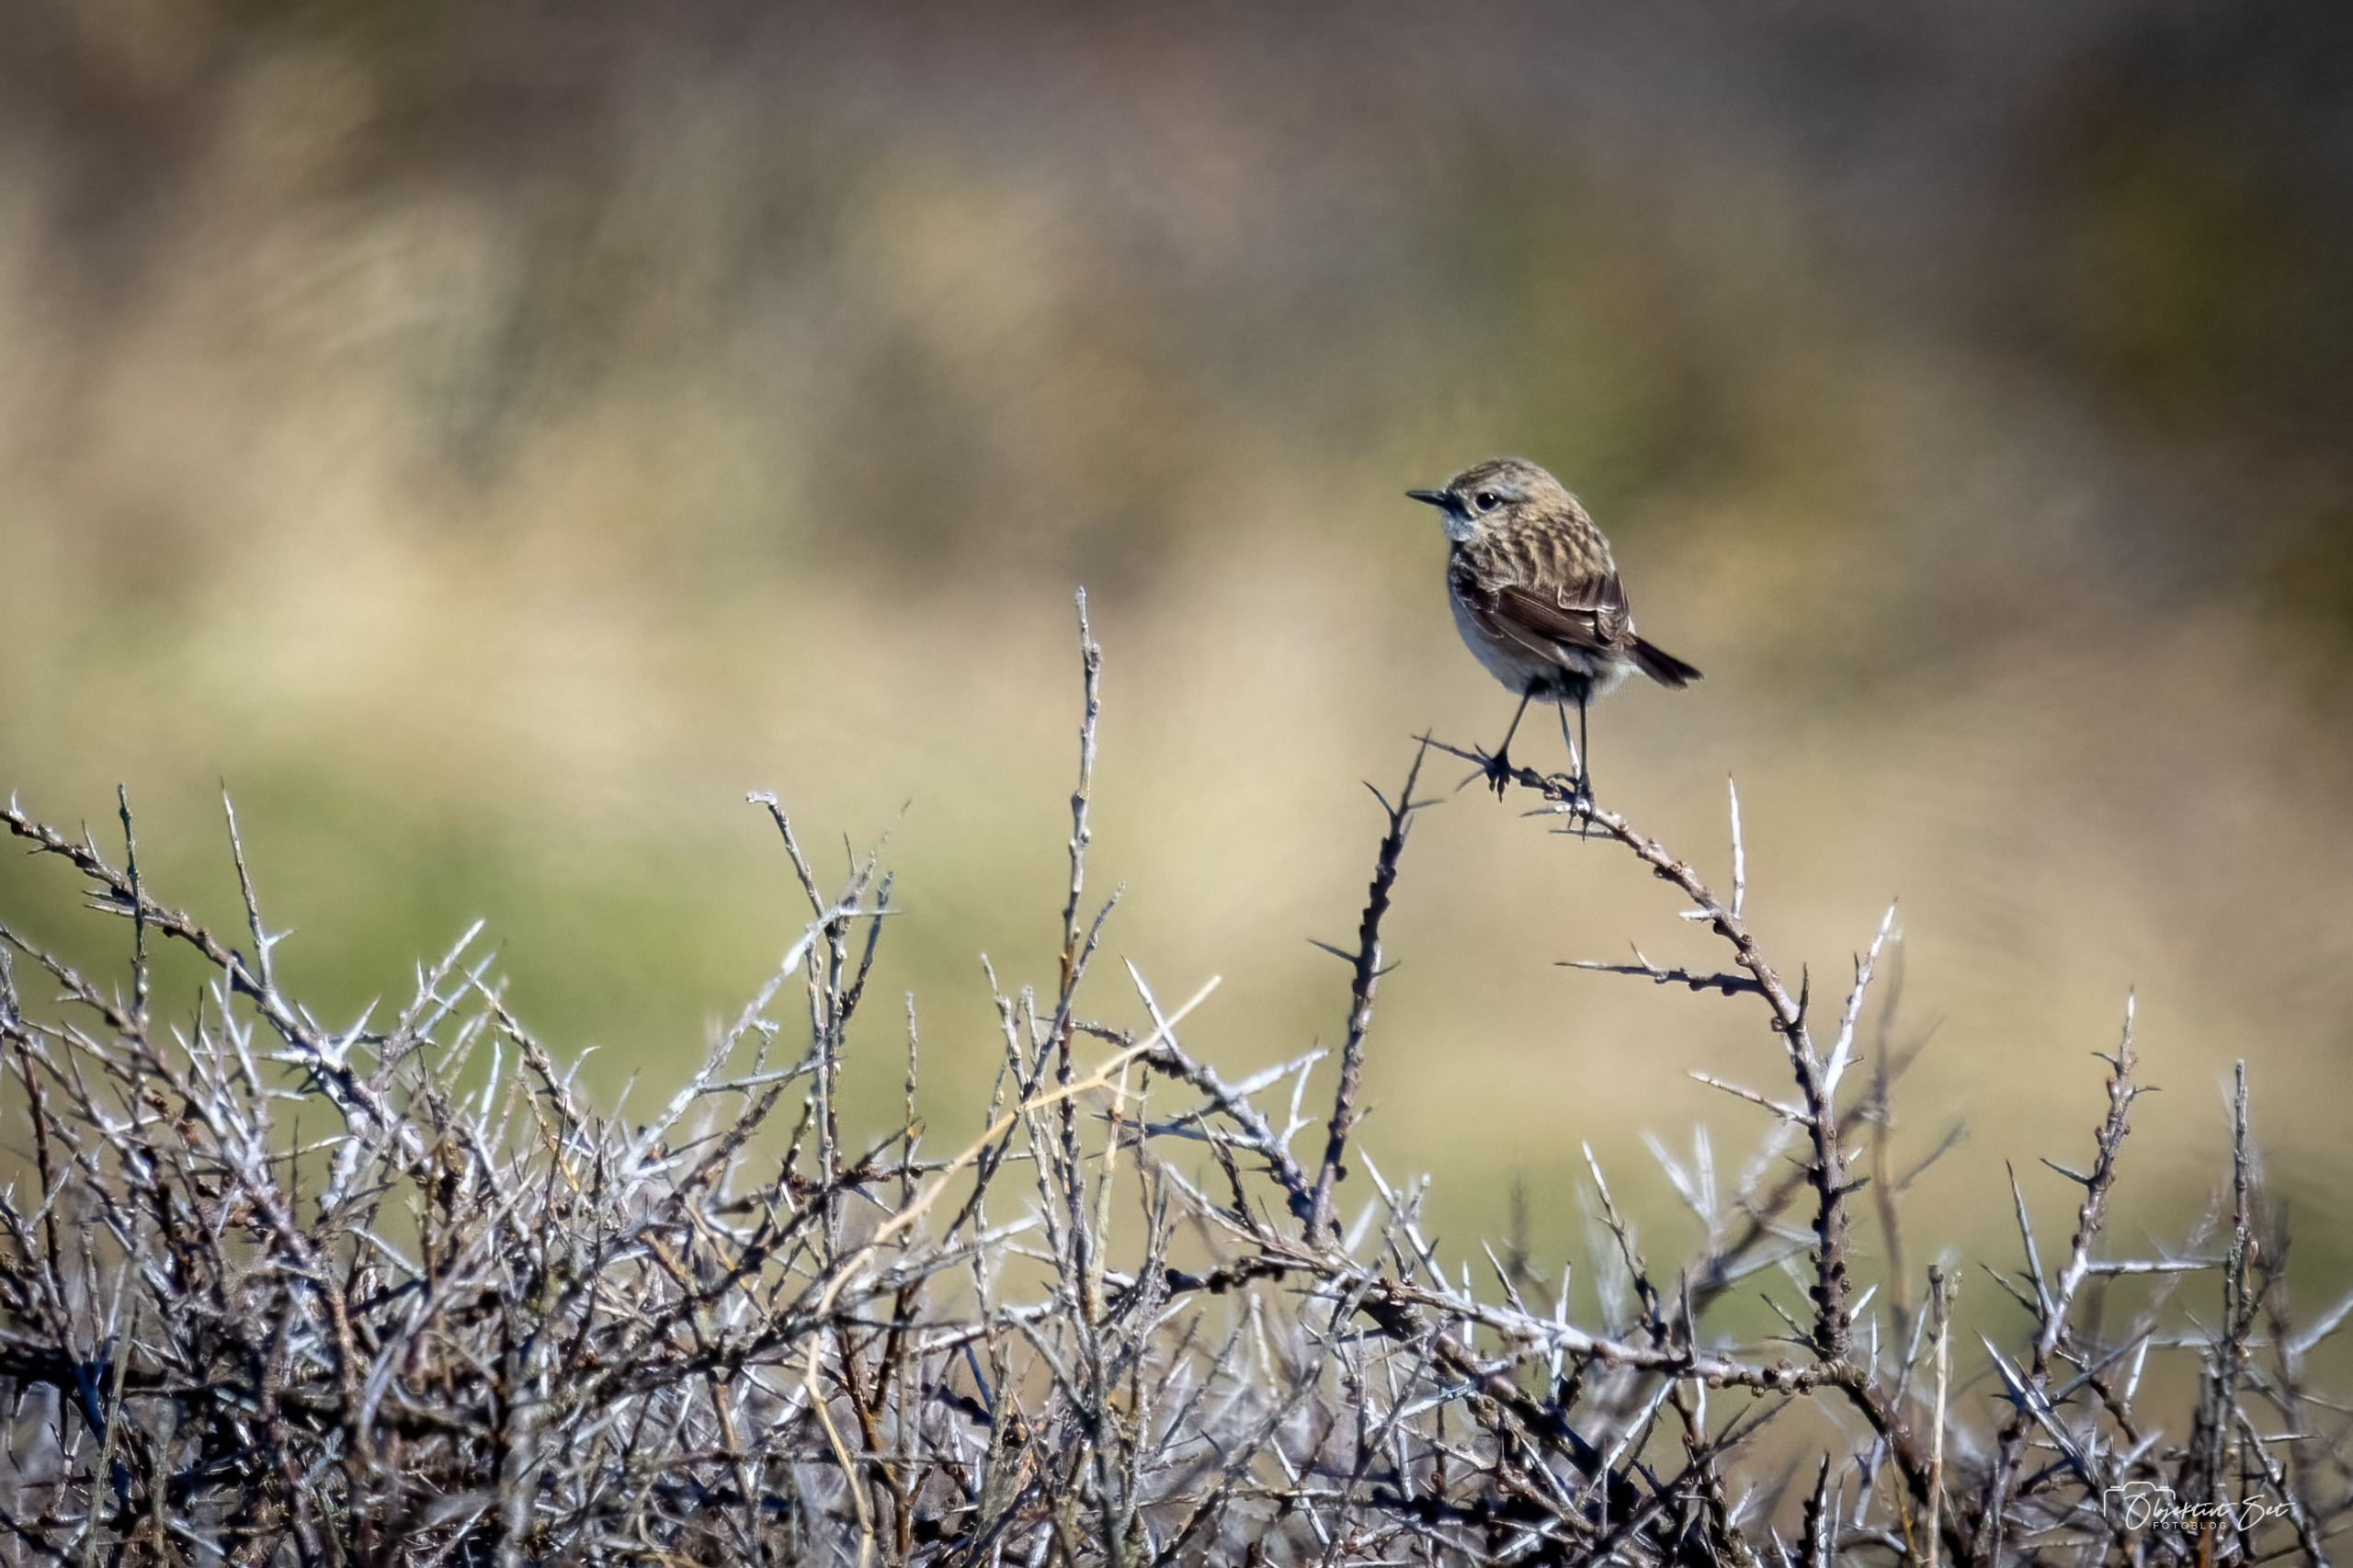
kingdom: Animalia
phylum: Chordata
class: Aves
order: Passeriformes
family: Muscicapidae
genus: Saxicola
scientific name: Saxicola rubicola
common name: Sortstrubet bynkefugl
